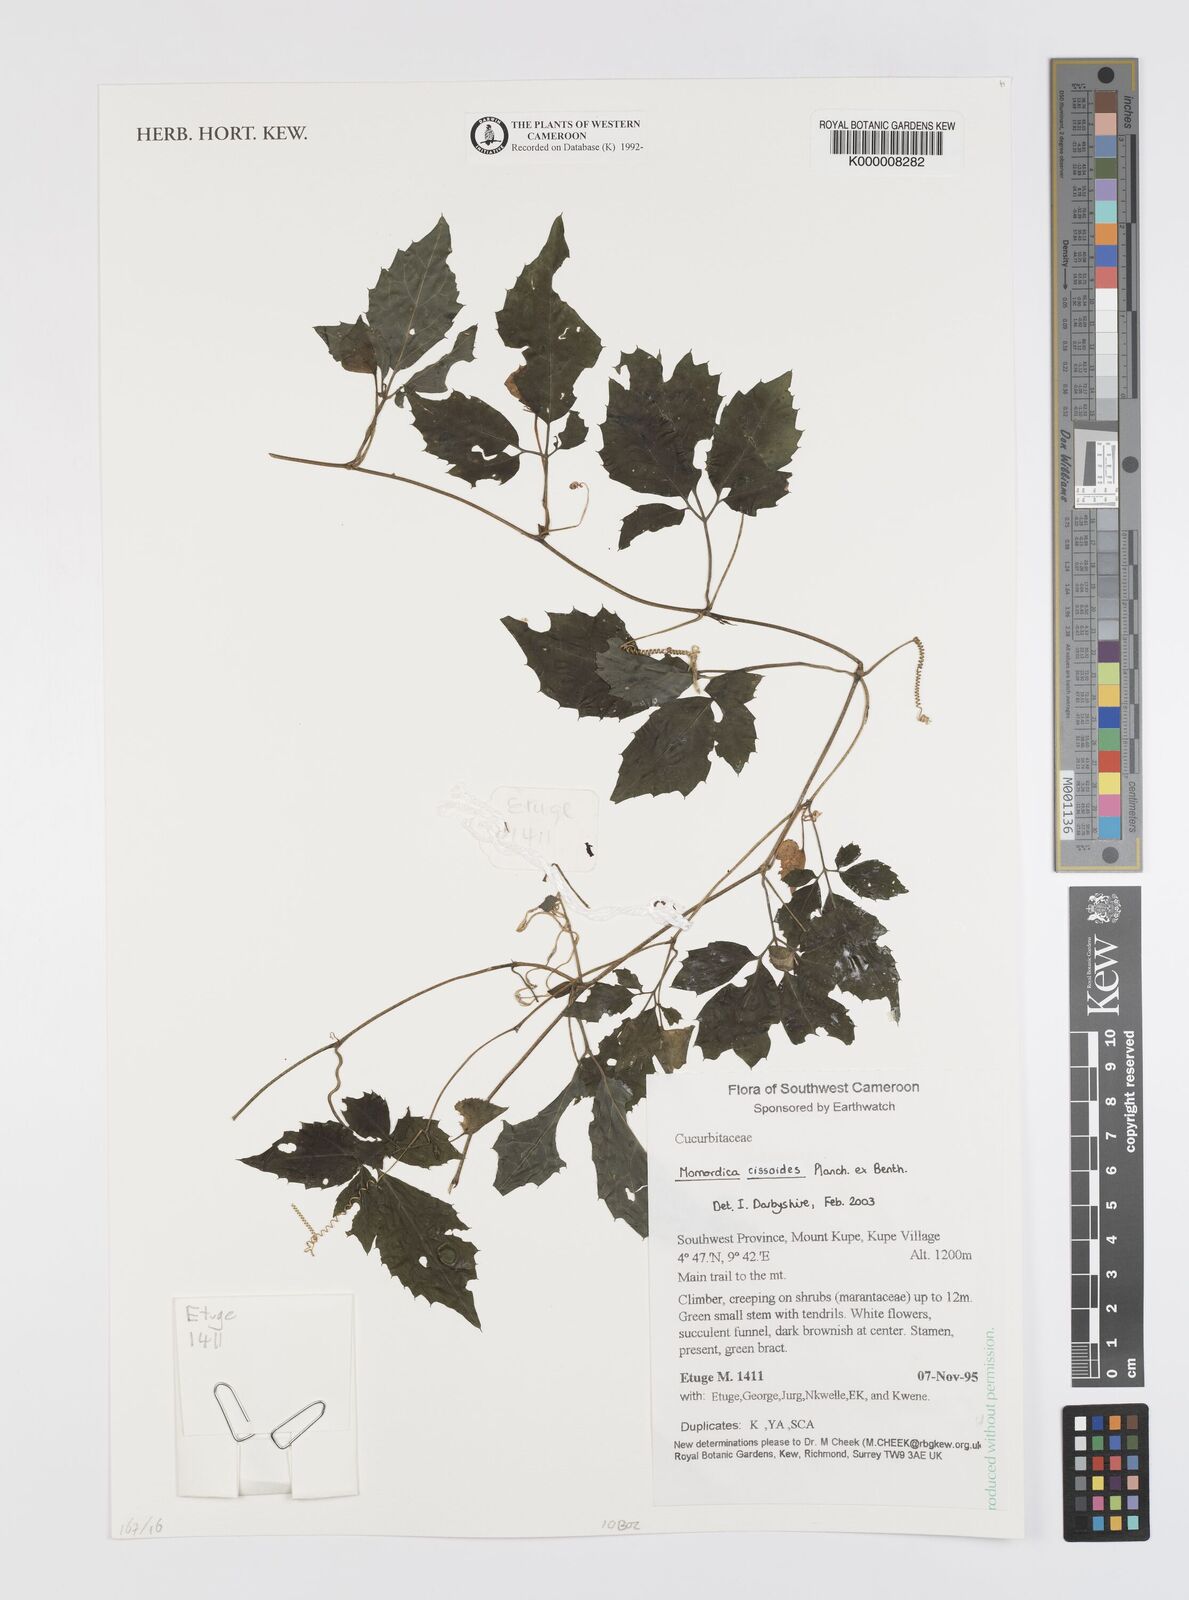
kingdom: Plantae
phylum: Tracheophyta
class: Magnoliopsida
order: Cucurbitales
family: Cucurbitaceae
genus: Momordica
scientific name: Momordica cissoides
